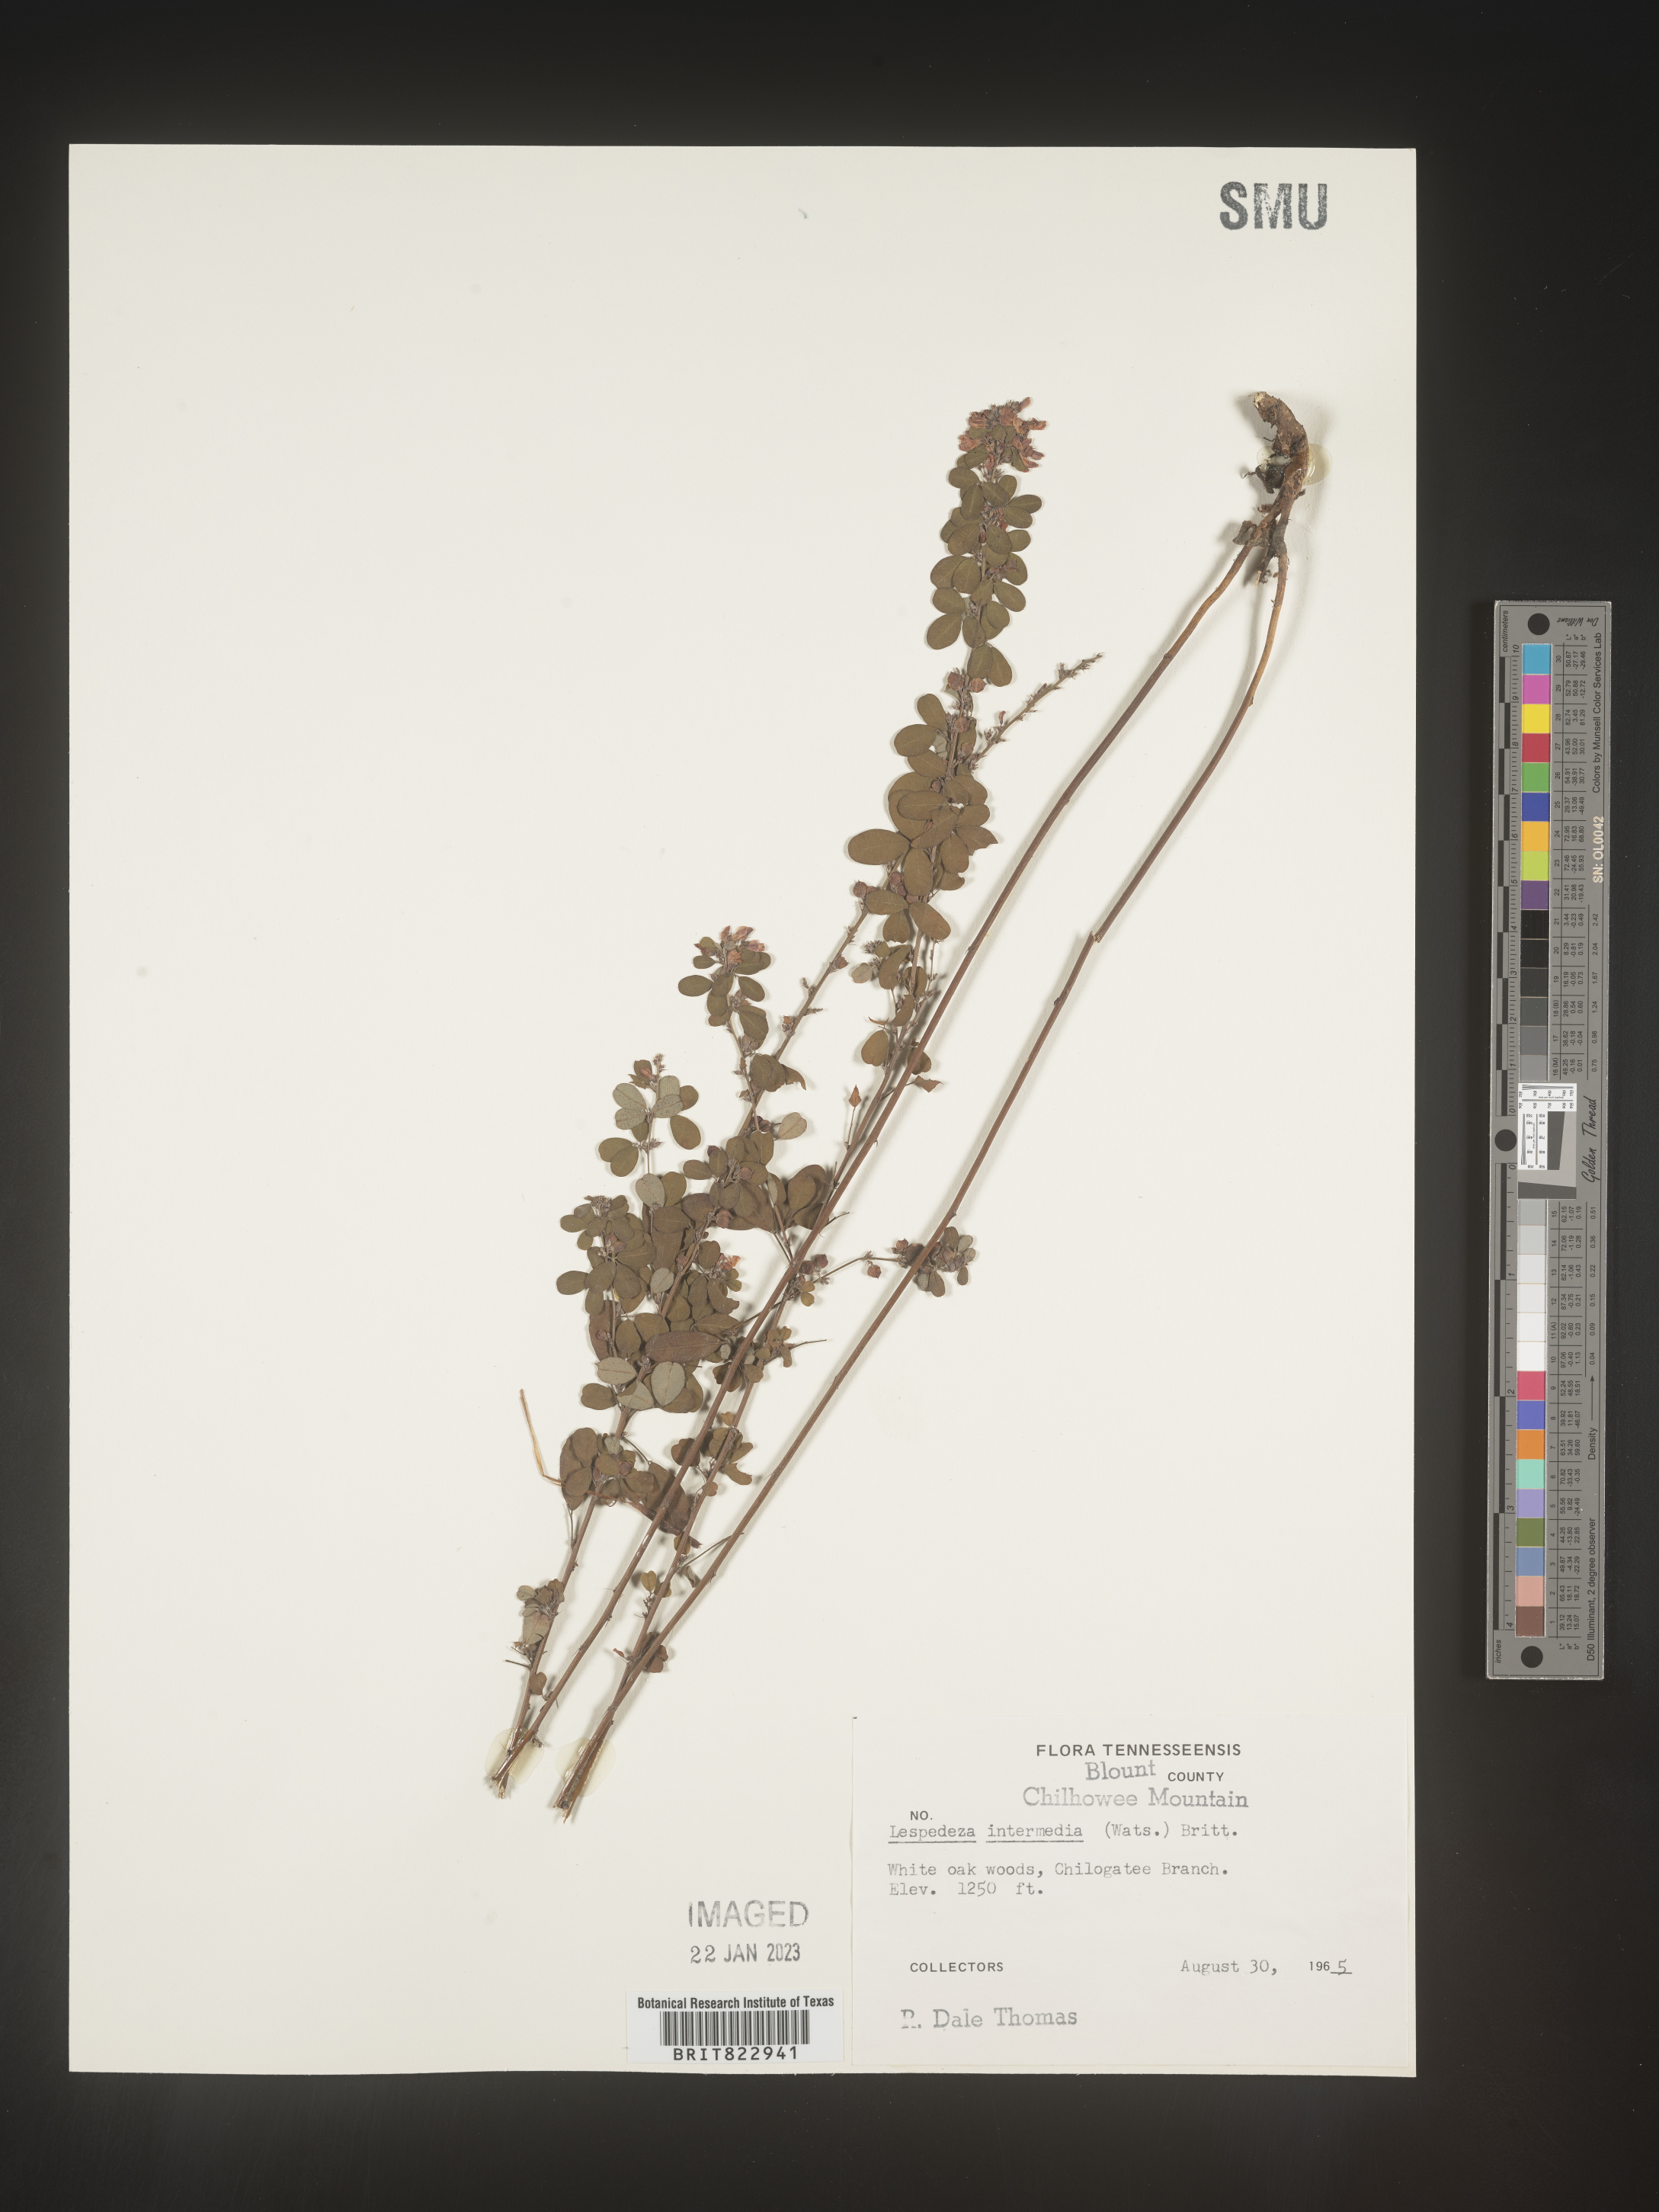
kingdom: Plantae
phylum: Tracheophyta
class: Magnoliopsida
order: Fabales
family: Fabaceae
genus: Lespedeza
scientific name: Lespedeza
